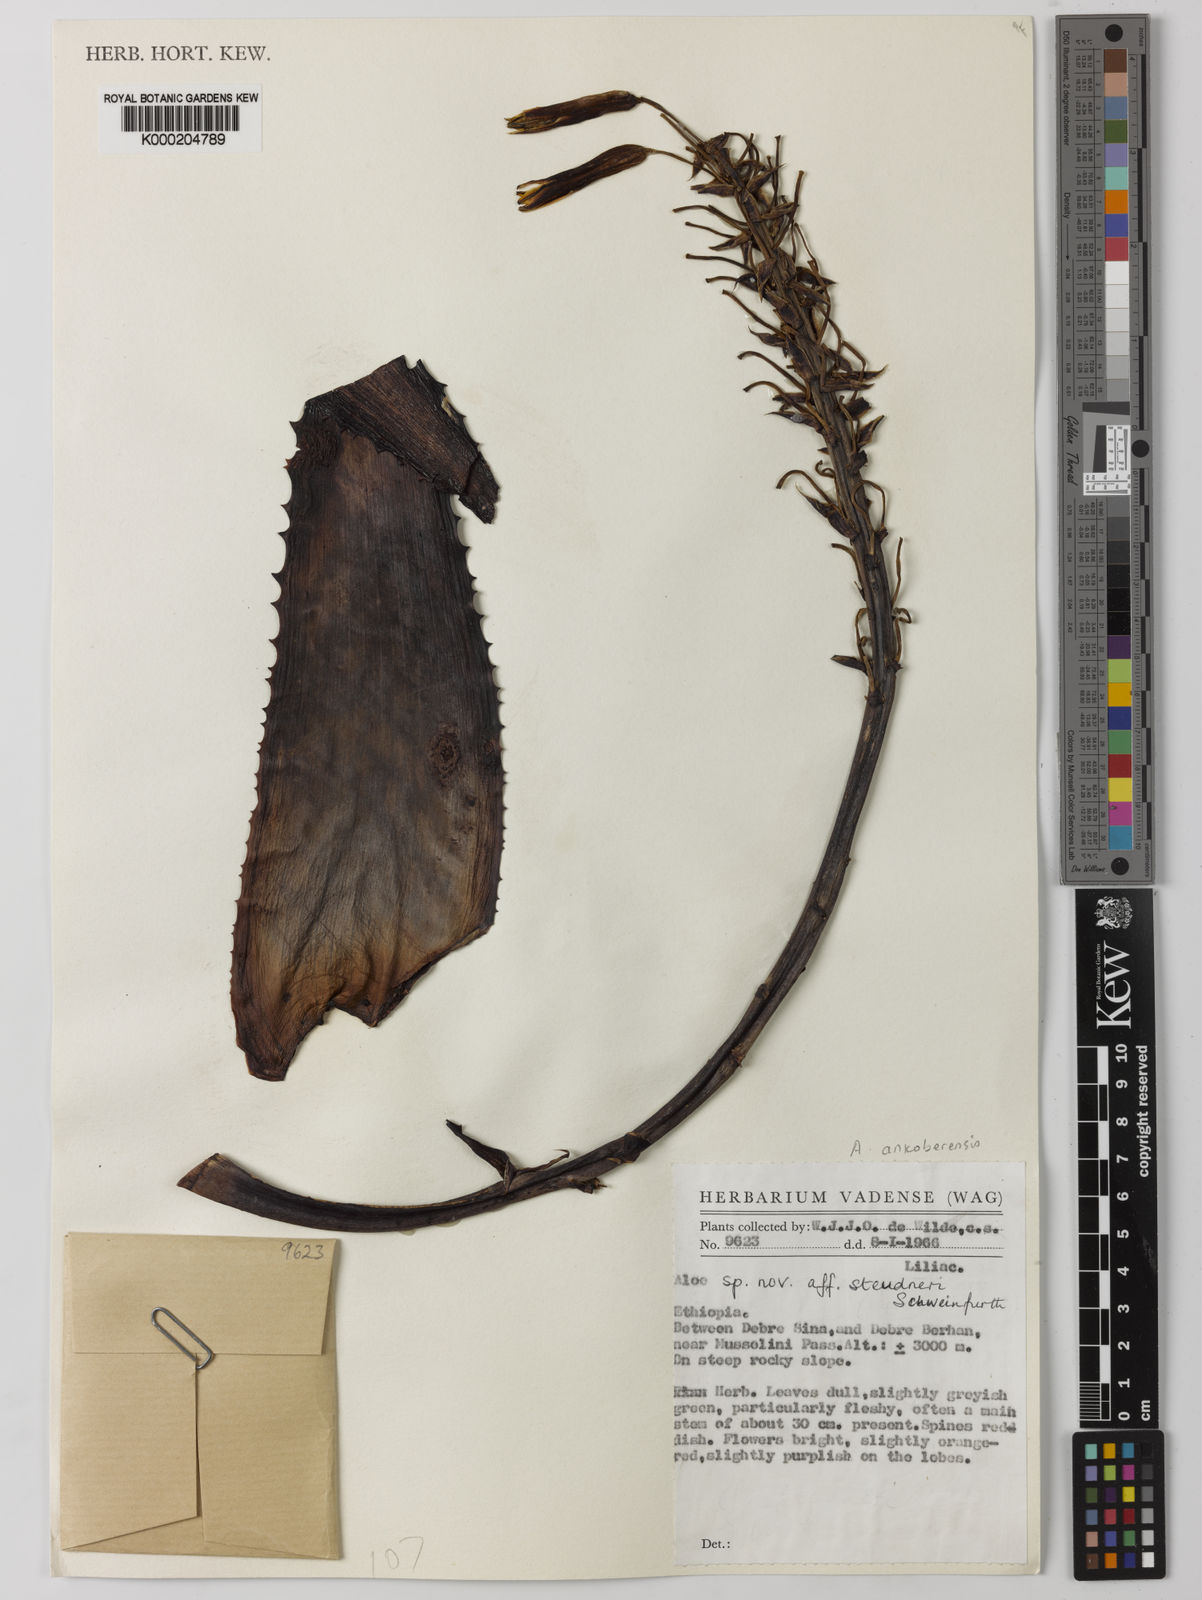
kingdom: Plantae
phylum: Tracheophyta
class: Liliopsida
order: Asparagales
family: Asphodelaceae
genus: Aloe
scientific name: Aloe ankoberensis
